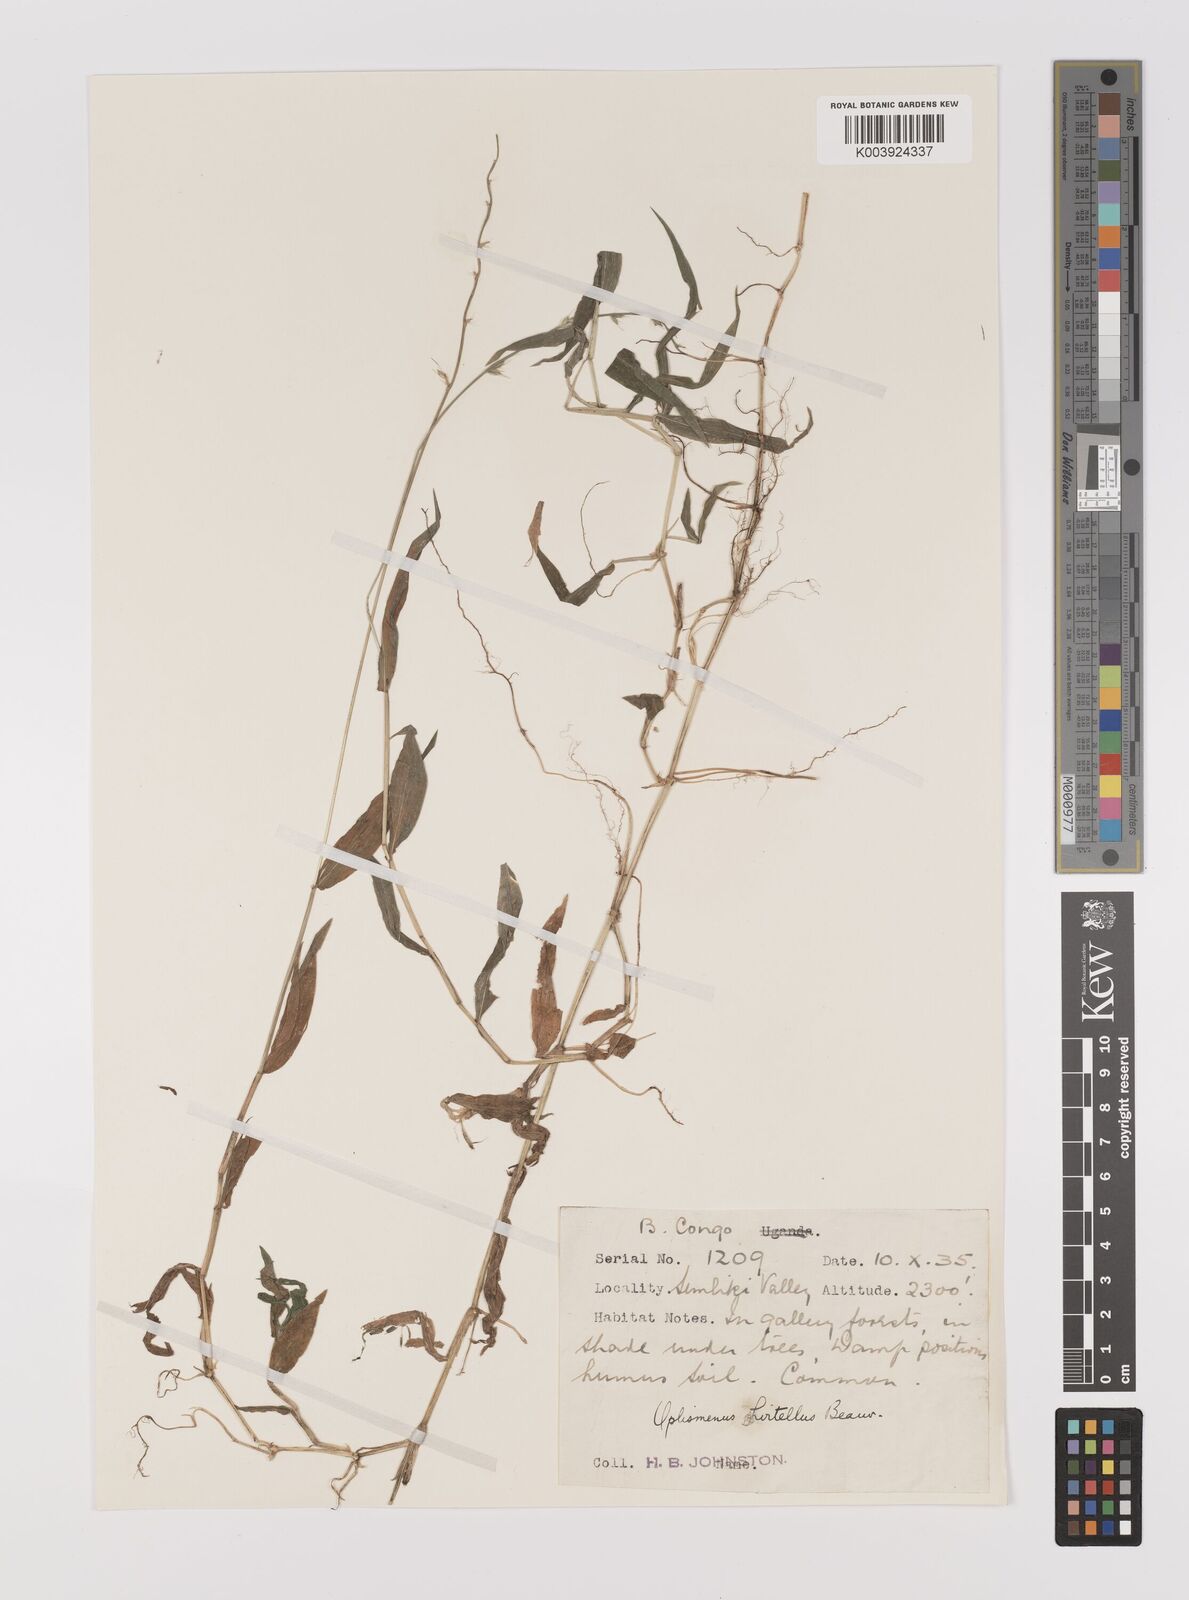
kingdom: Plantae
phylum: Tracheophyta
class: Liliopsida
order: Poales
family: Poaceae
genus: Oplismenus
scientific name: Oplismenus hirtellus
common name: Basketgrass
